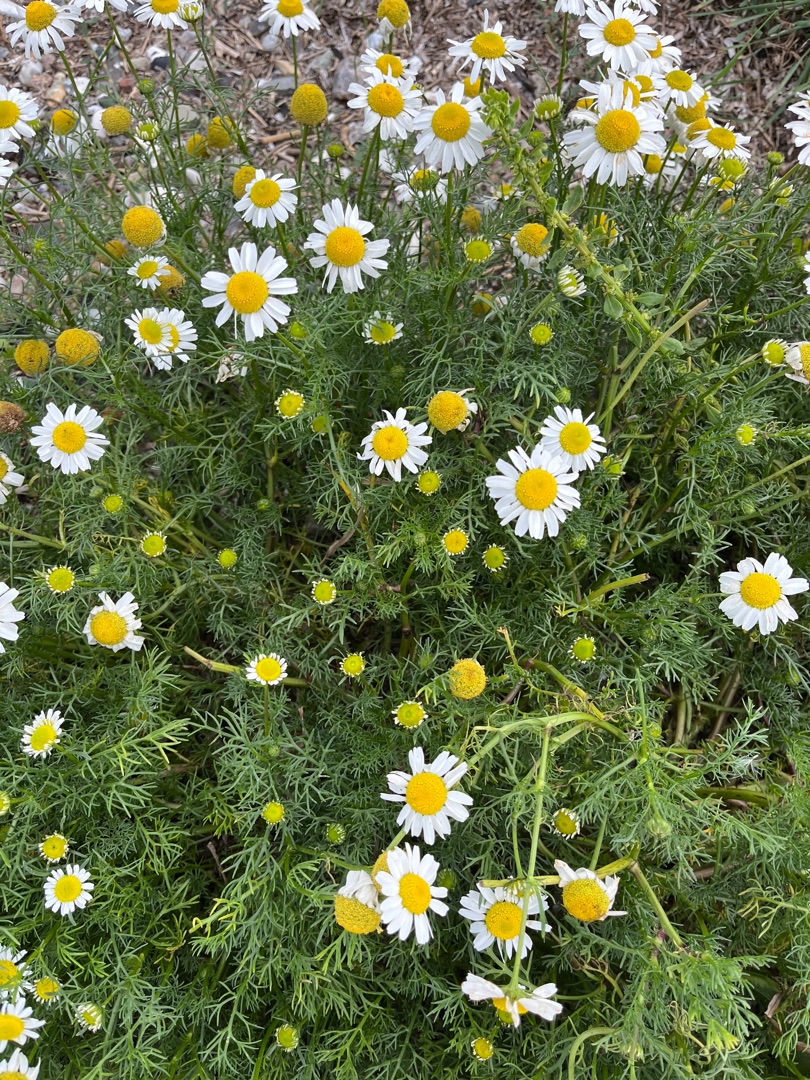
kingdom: Plantae
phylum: Tracheophyta
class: Magnoliopsida
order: Asterales
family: Asteraceae
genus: Tripleurospermum
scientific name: Tripleurospermum maritimum
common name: Strand-kamille
